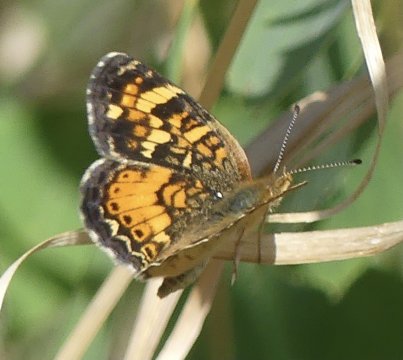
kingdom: Animalia
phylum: Arthropoda
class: Insecta
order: Lepidoptera
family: Nymphalidae
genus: Phyciodes
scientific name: Phyciodes
